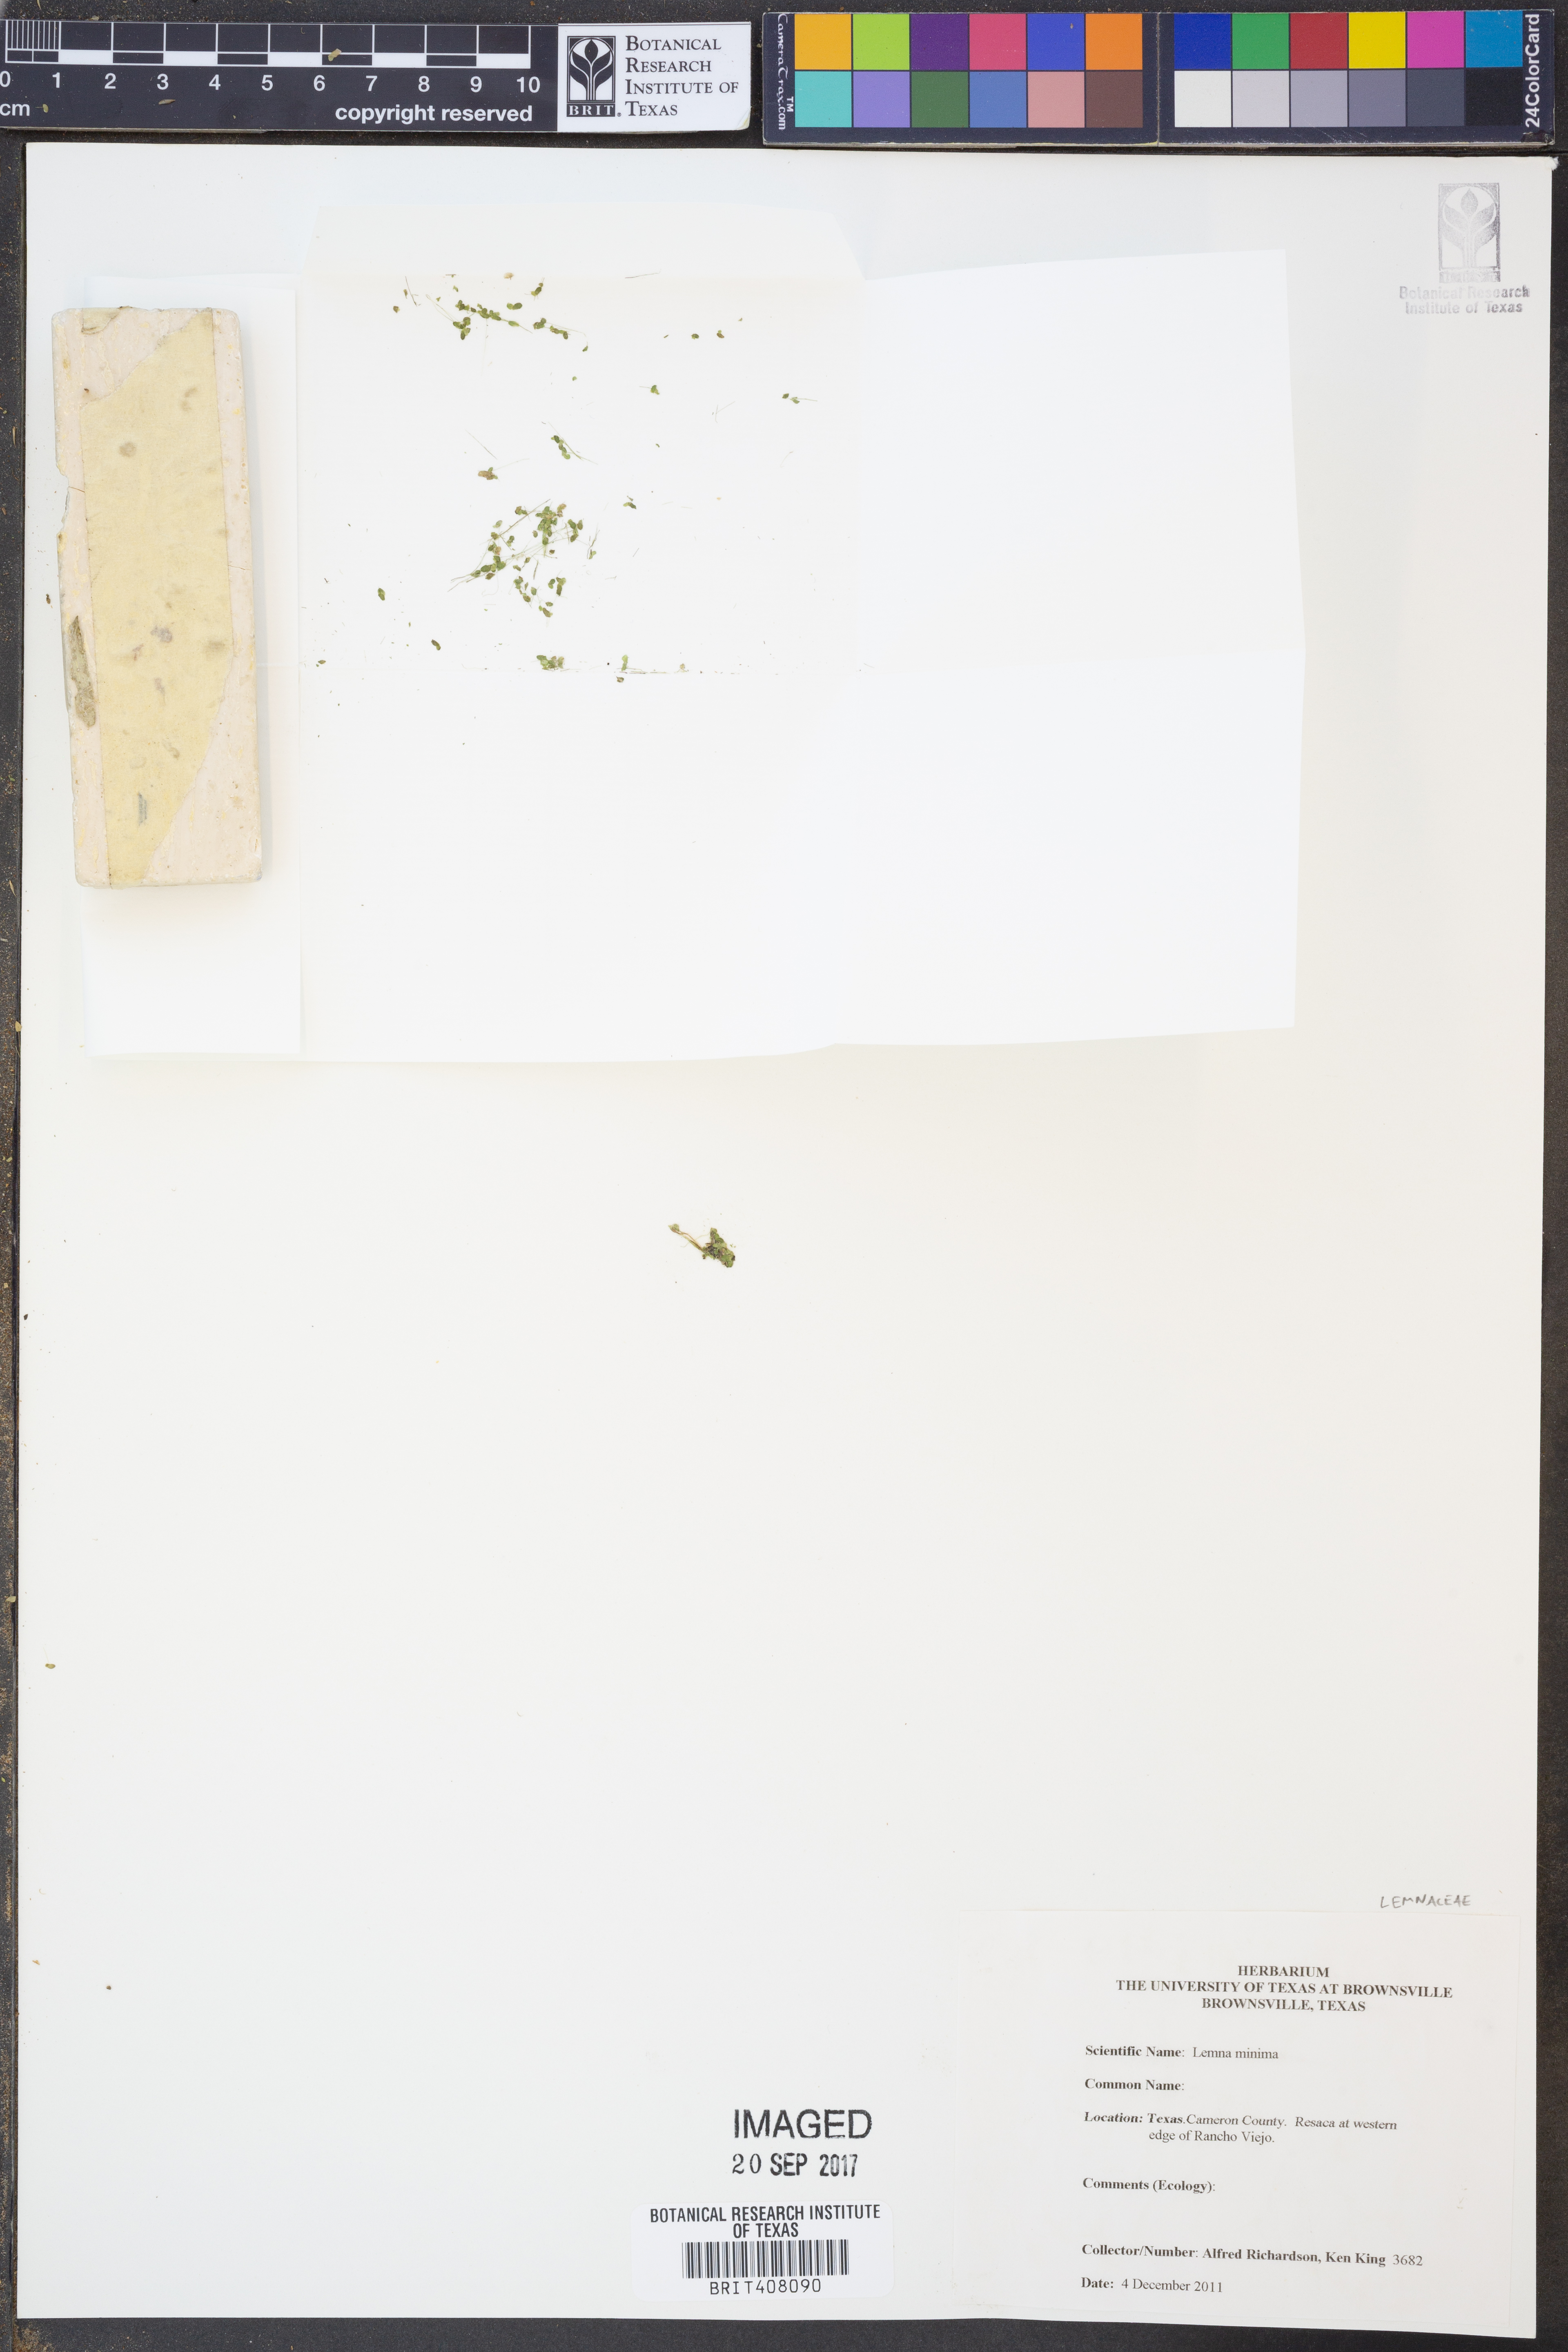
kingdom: Plantae
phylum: Tracheophyta
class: Liliopsida
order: Alismatales
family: Araceae
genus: Lemna
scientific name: Lemna minuta
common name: Least duckweed
